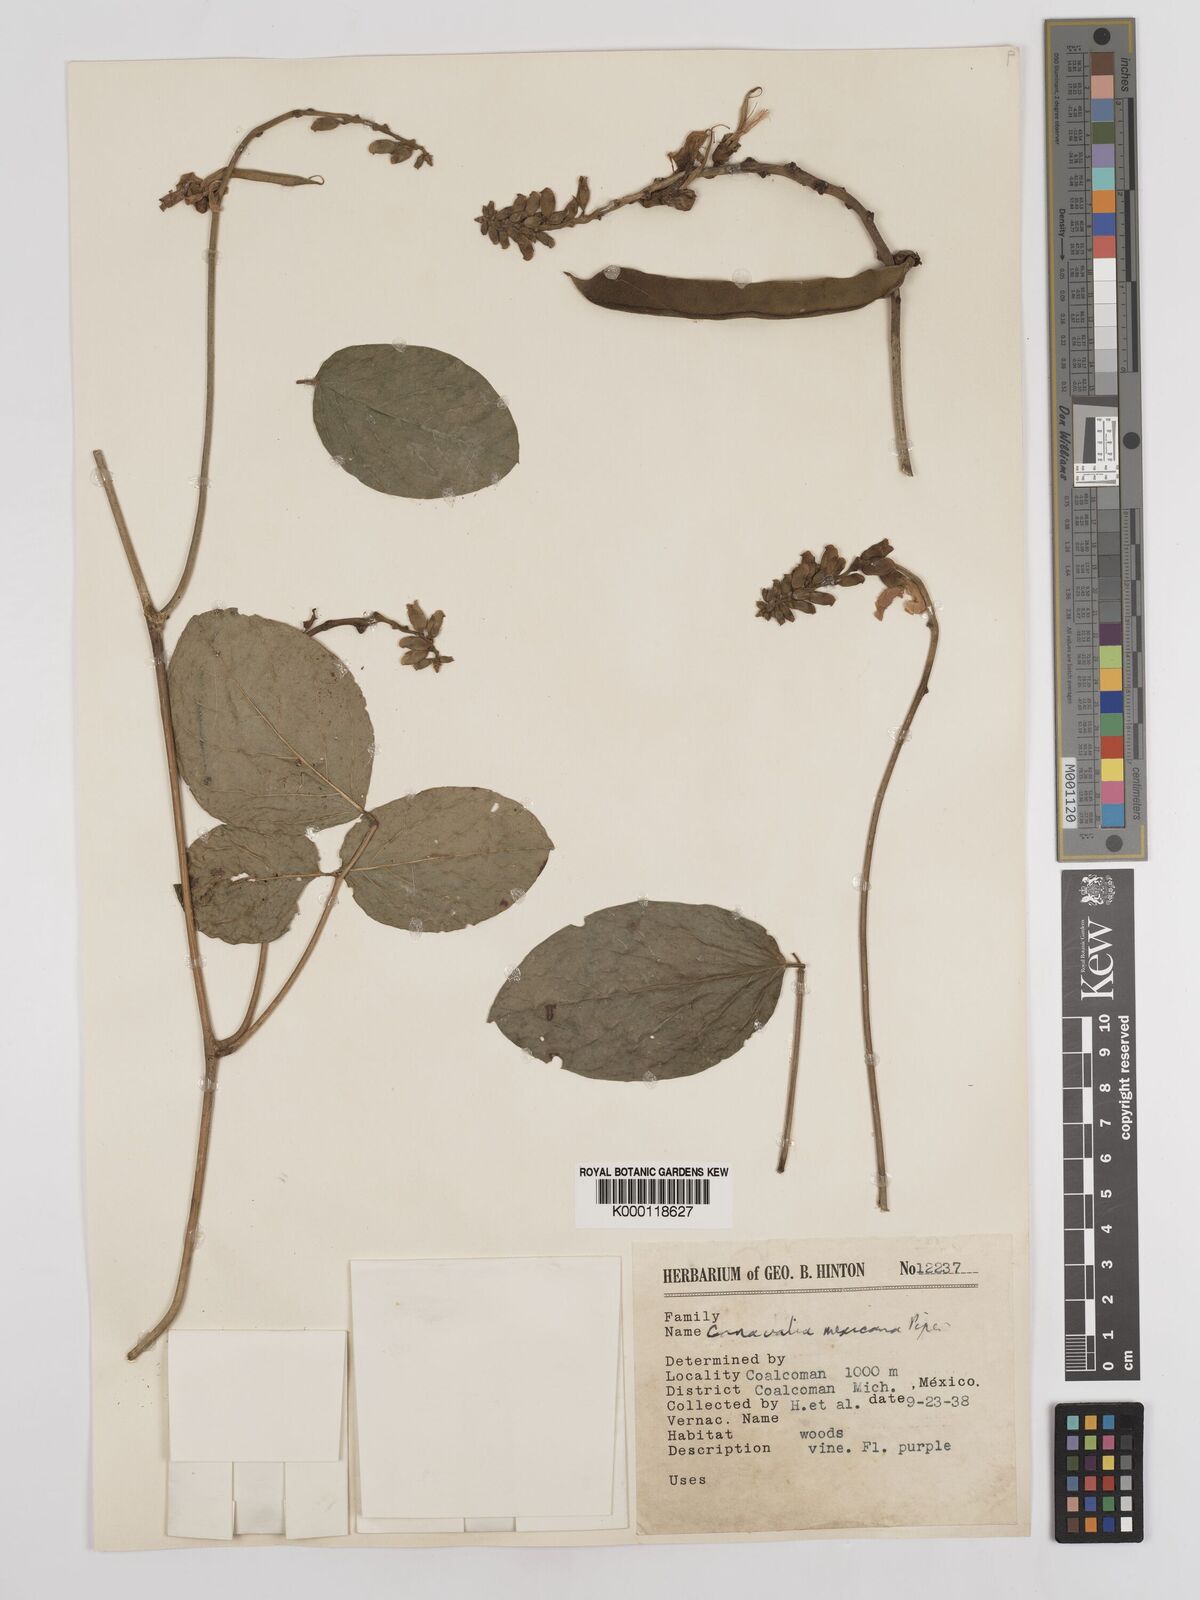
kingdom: Plantae
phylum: Tracheophyta
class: Magnoliopsida
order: Fabales
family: Fabaceae
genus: Canavalia
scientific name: Canavalia brasiliensis
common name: Barbicou-bean
